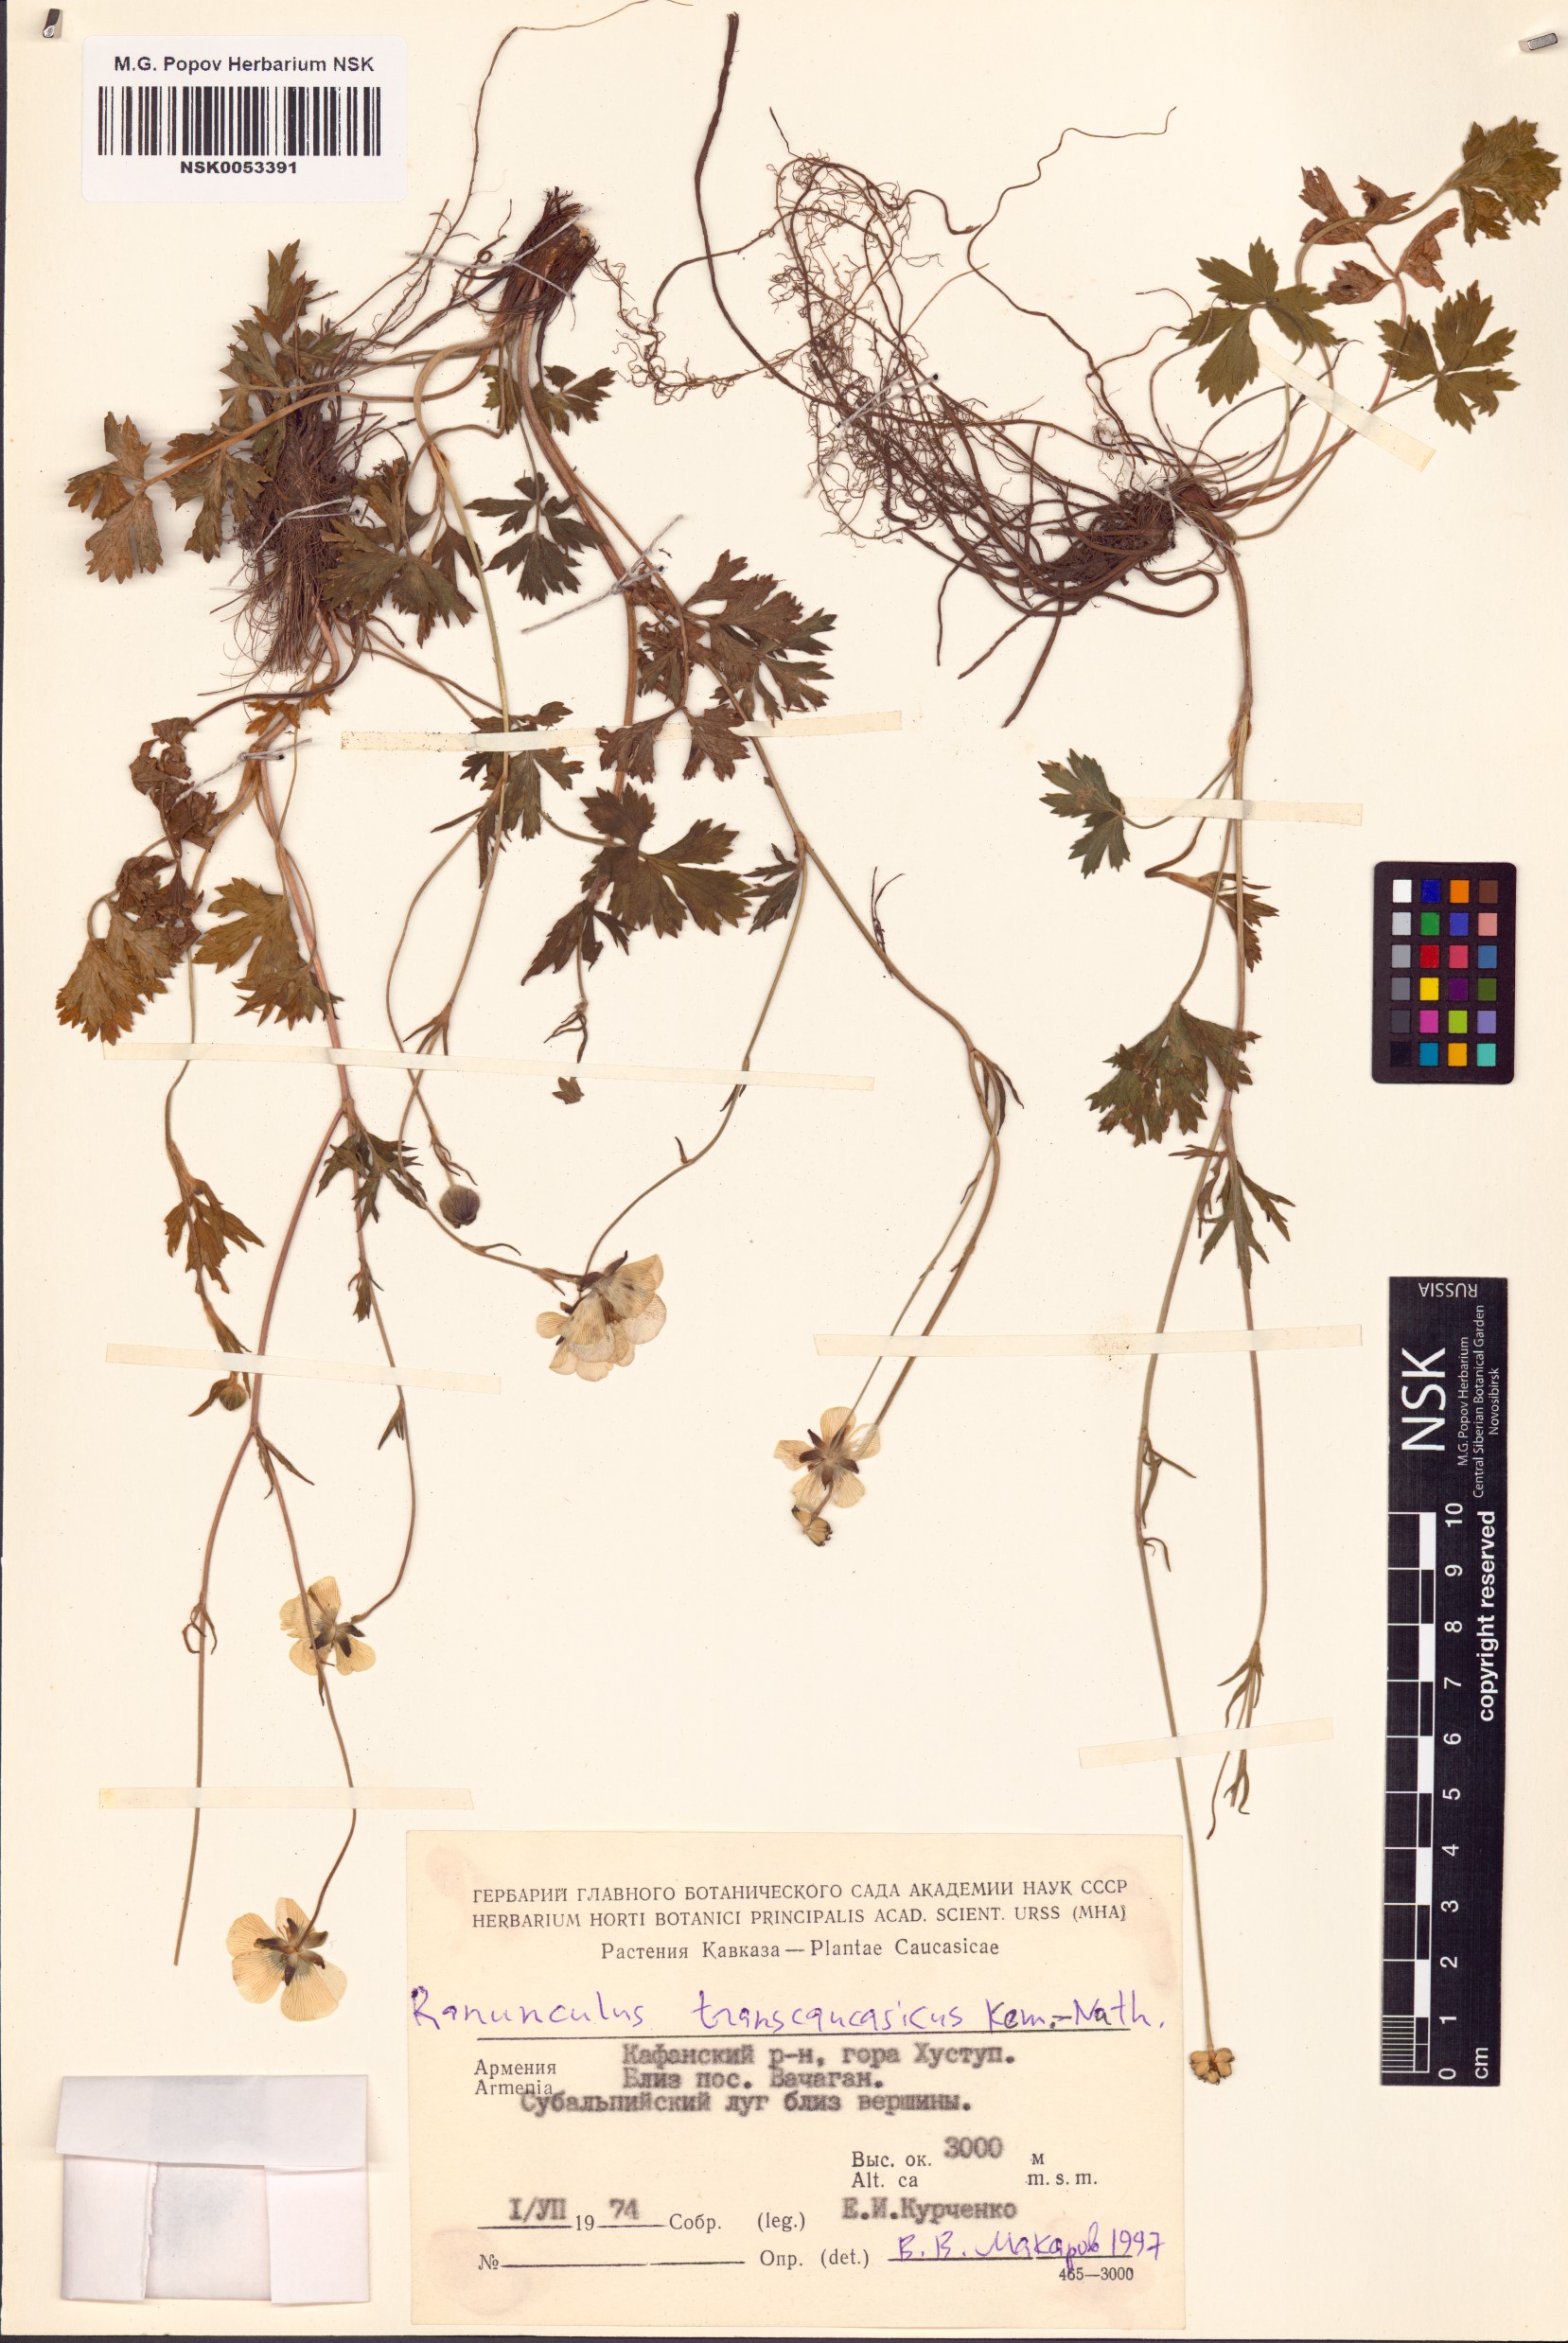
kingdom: Plantae
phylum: Tracheophyta
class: Magnoliopsida
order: Ranunculales
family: Ranunculaceae
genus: Ranunculus
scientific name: Ranunculus raddeanus
